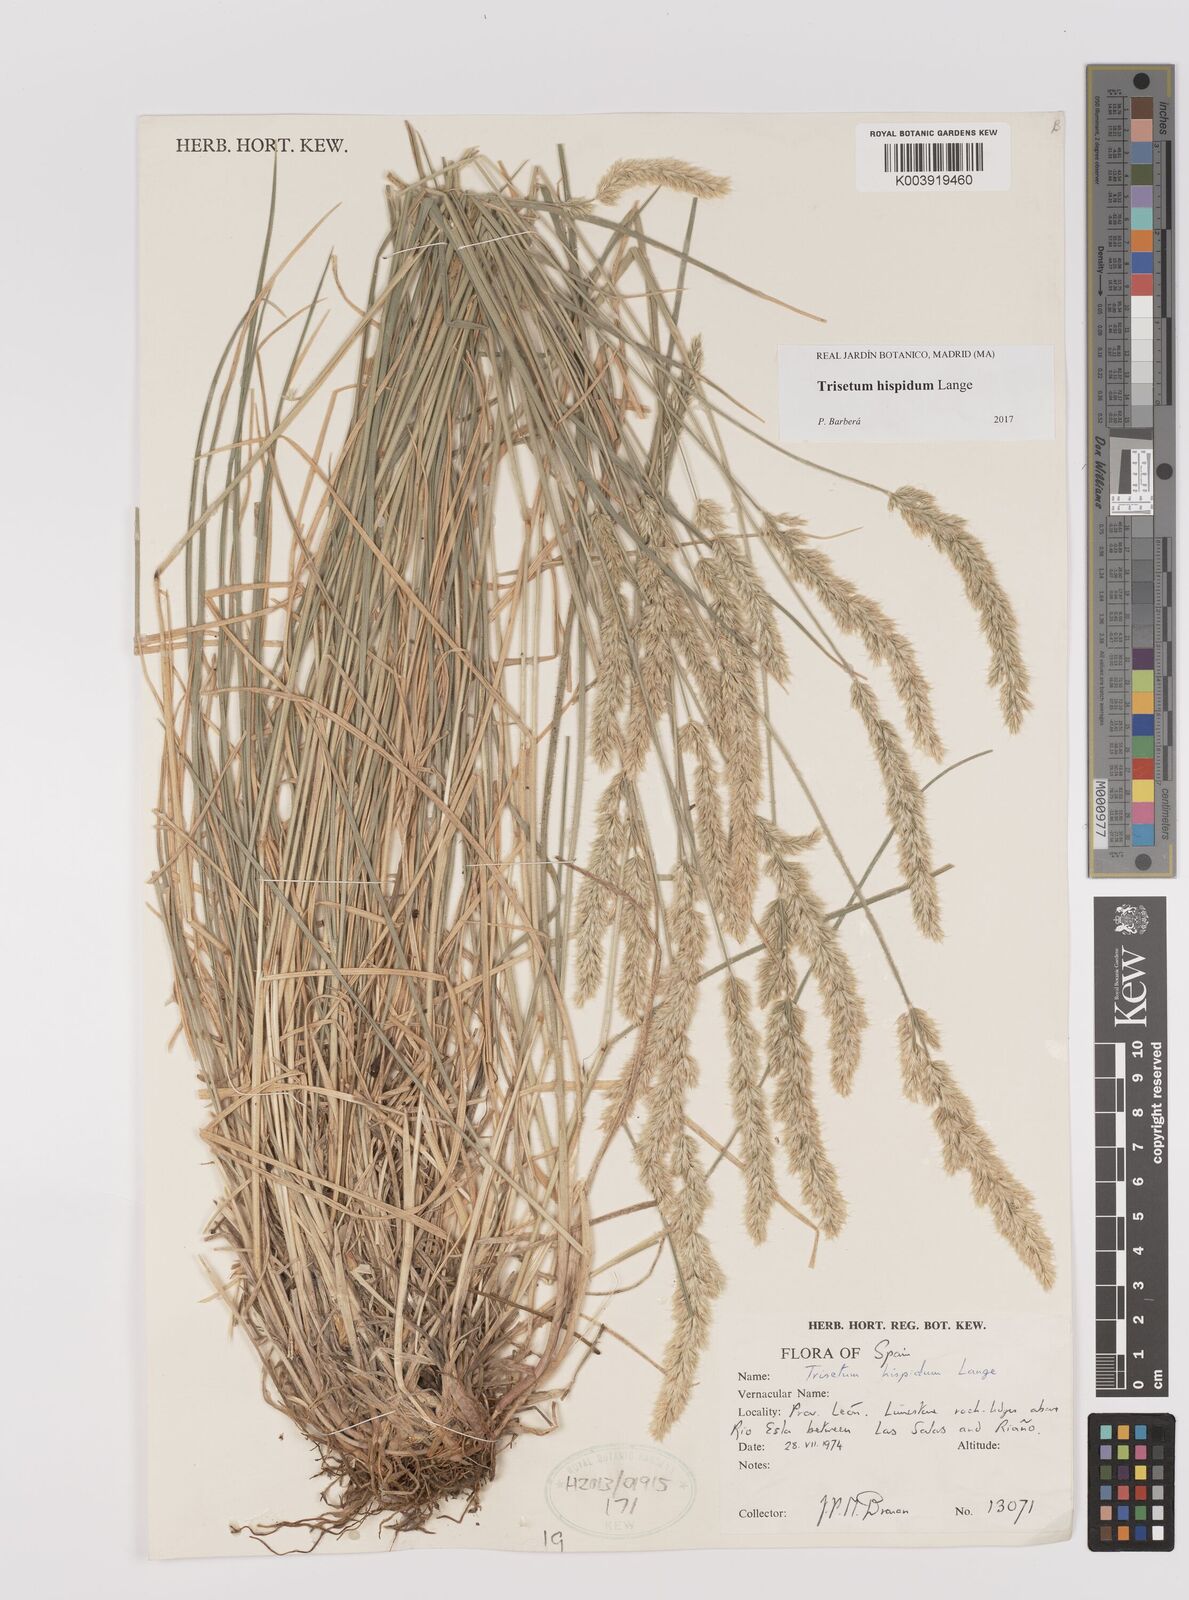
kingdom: Plantae
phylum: Tracheophyta
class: Liliopsida
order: Poales
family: Poaceae
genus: Koeleria
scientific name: Koeleria hispanica
